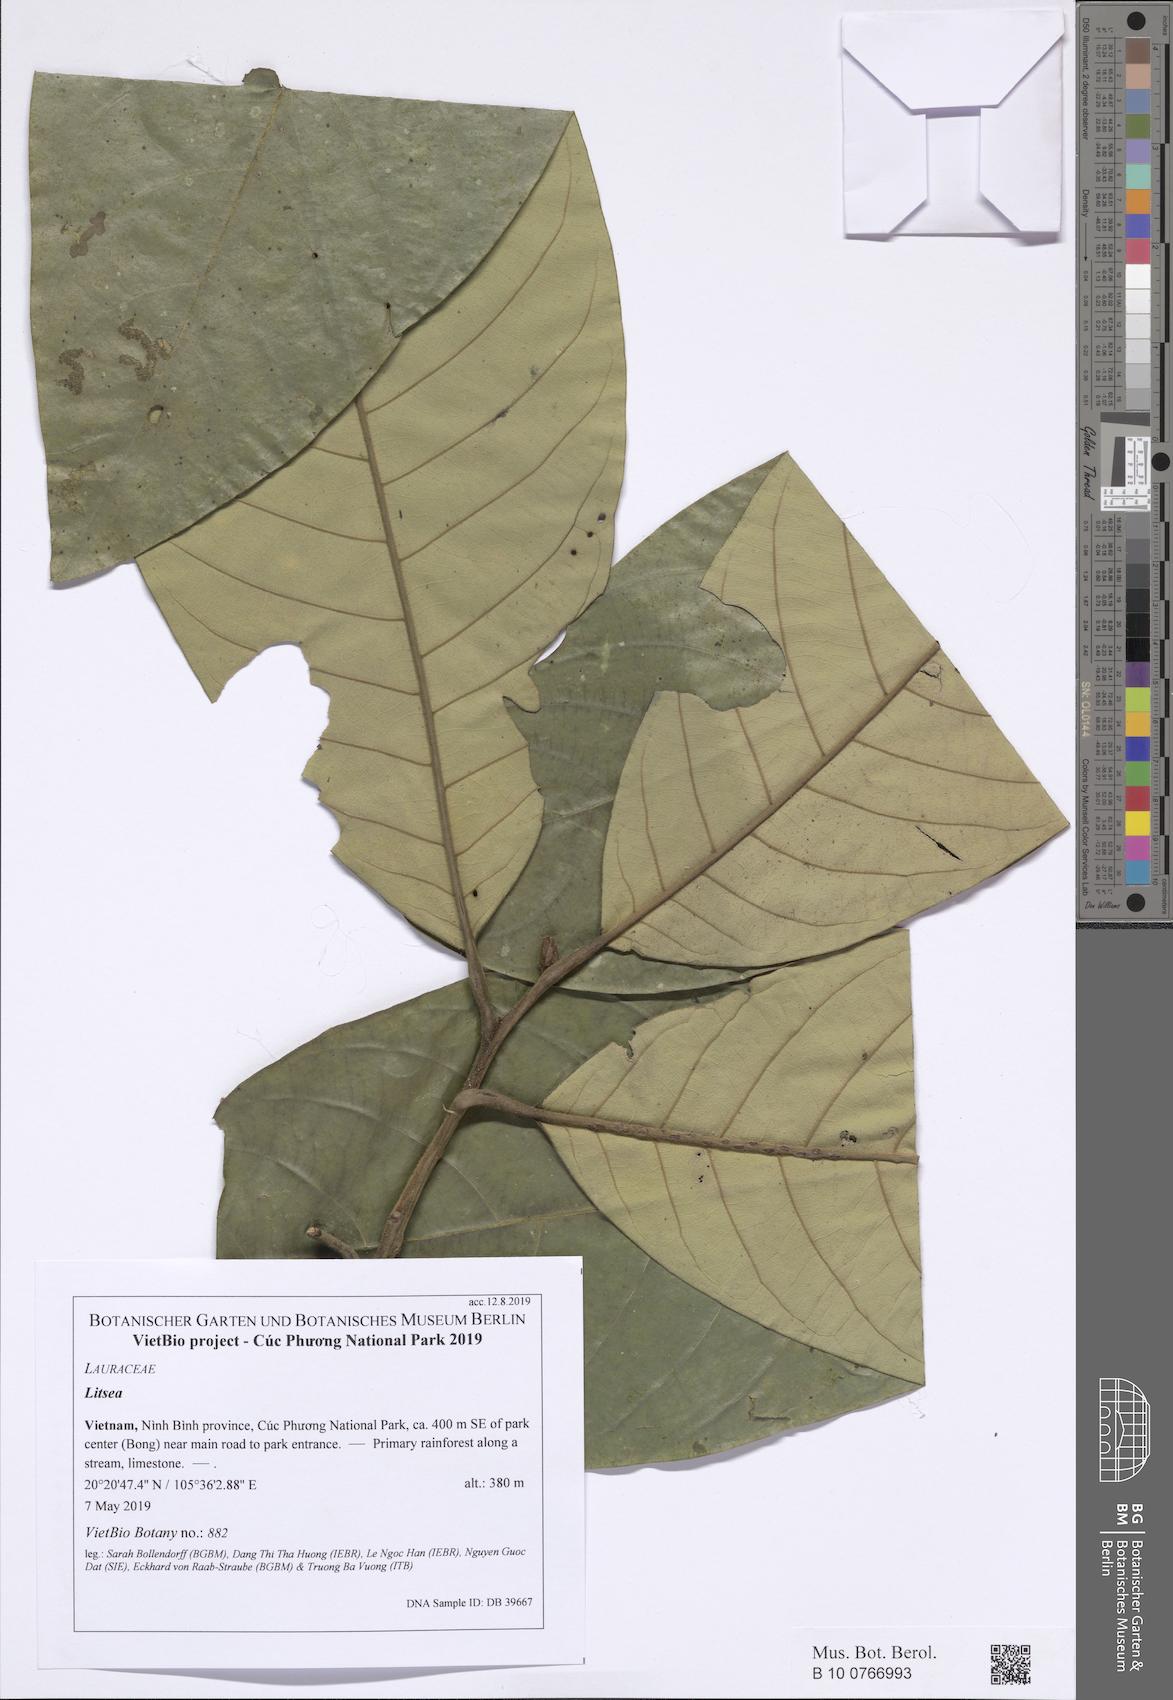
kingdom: Plantae
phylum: Tracheophyta
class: Magnoliopsida
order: Laurales
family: Lauraceae
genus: Litsea
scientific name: Litsea ferruginea
